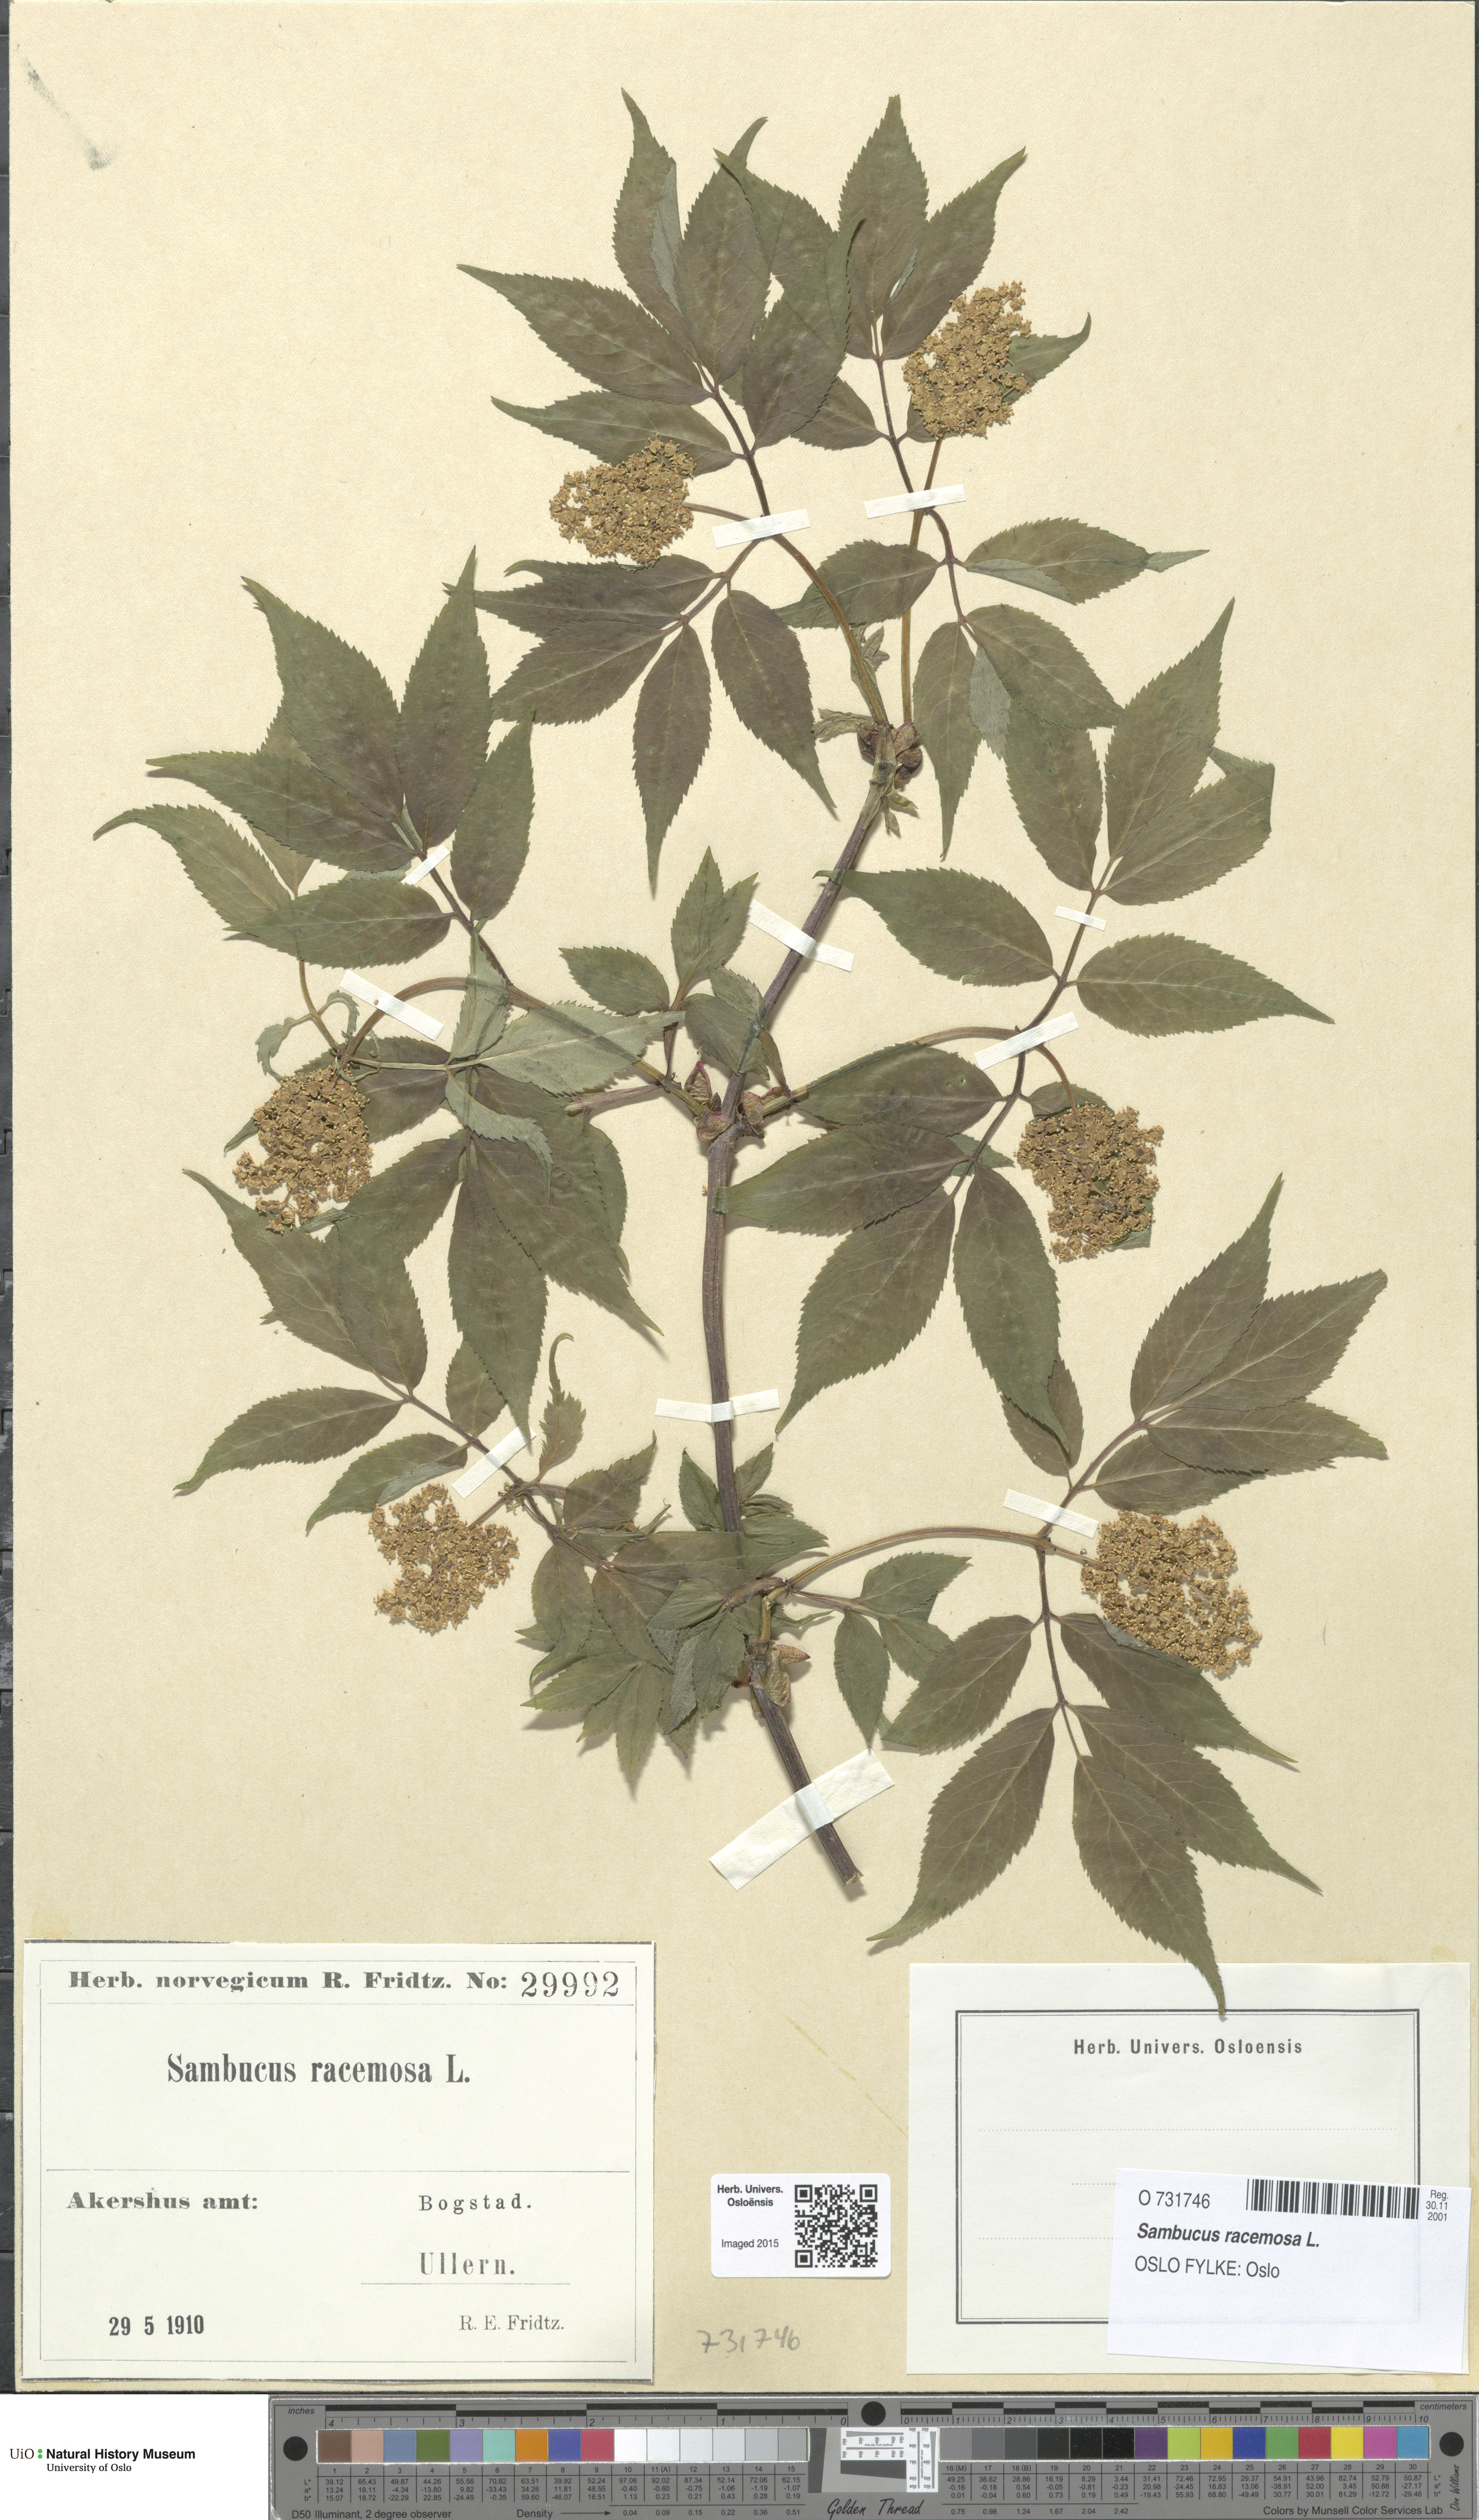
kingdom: Plantae
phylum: Tracheophyta
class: Magnoliopsida
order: Dipsacales
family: Viburnaceae
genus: Sambucus
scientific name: Sambucus racemosa
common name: Red-berried elder
